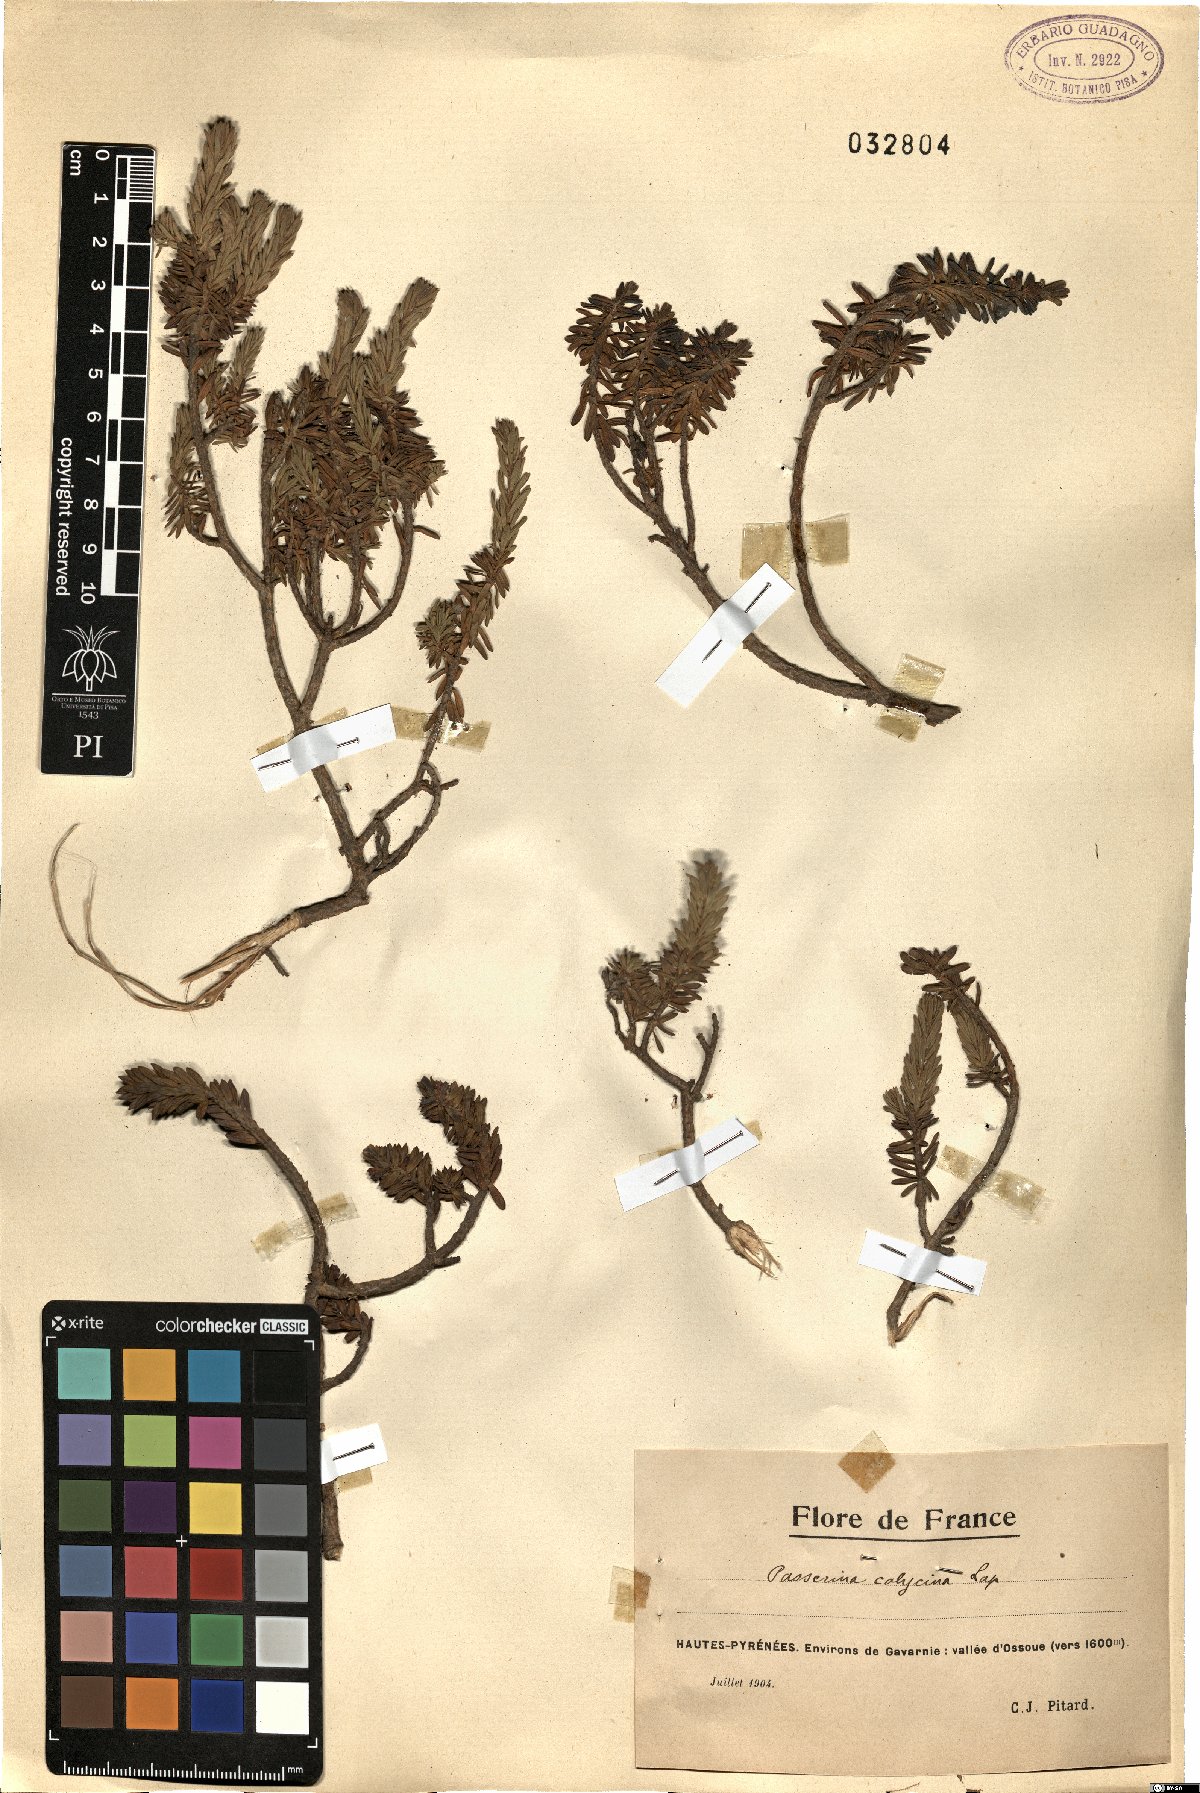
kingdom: Plantae
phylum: Tracheophyta
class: Magnoliopsida
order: Malvales
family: Thymelaeaceae
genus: Thymelaea
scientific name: Thymelaea calycina
